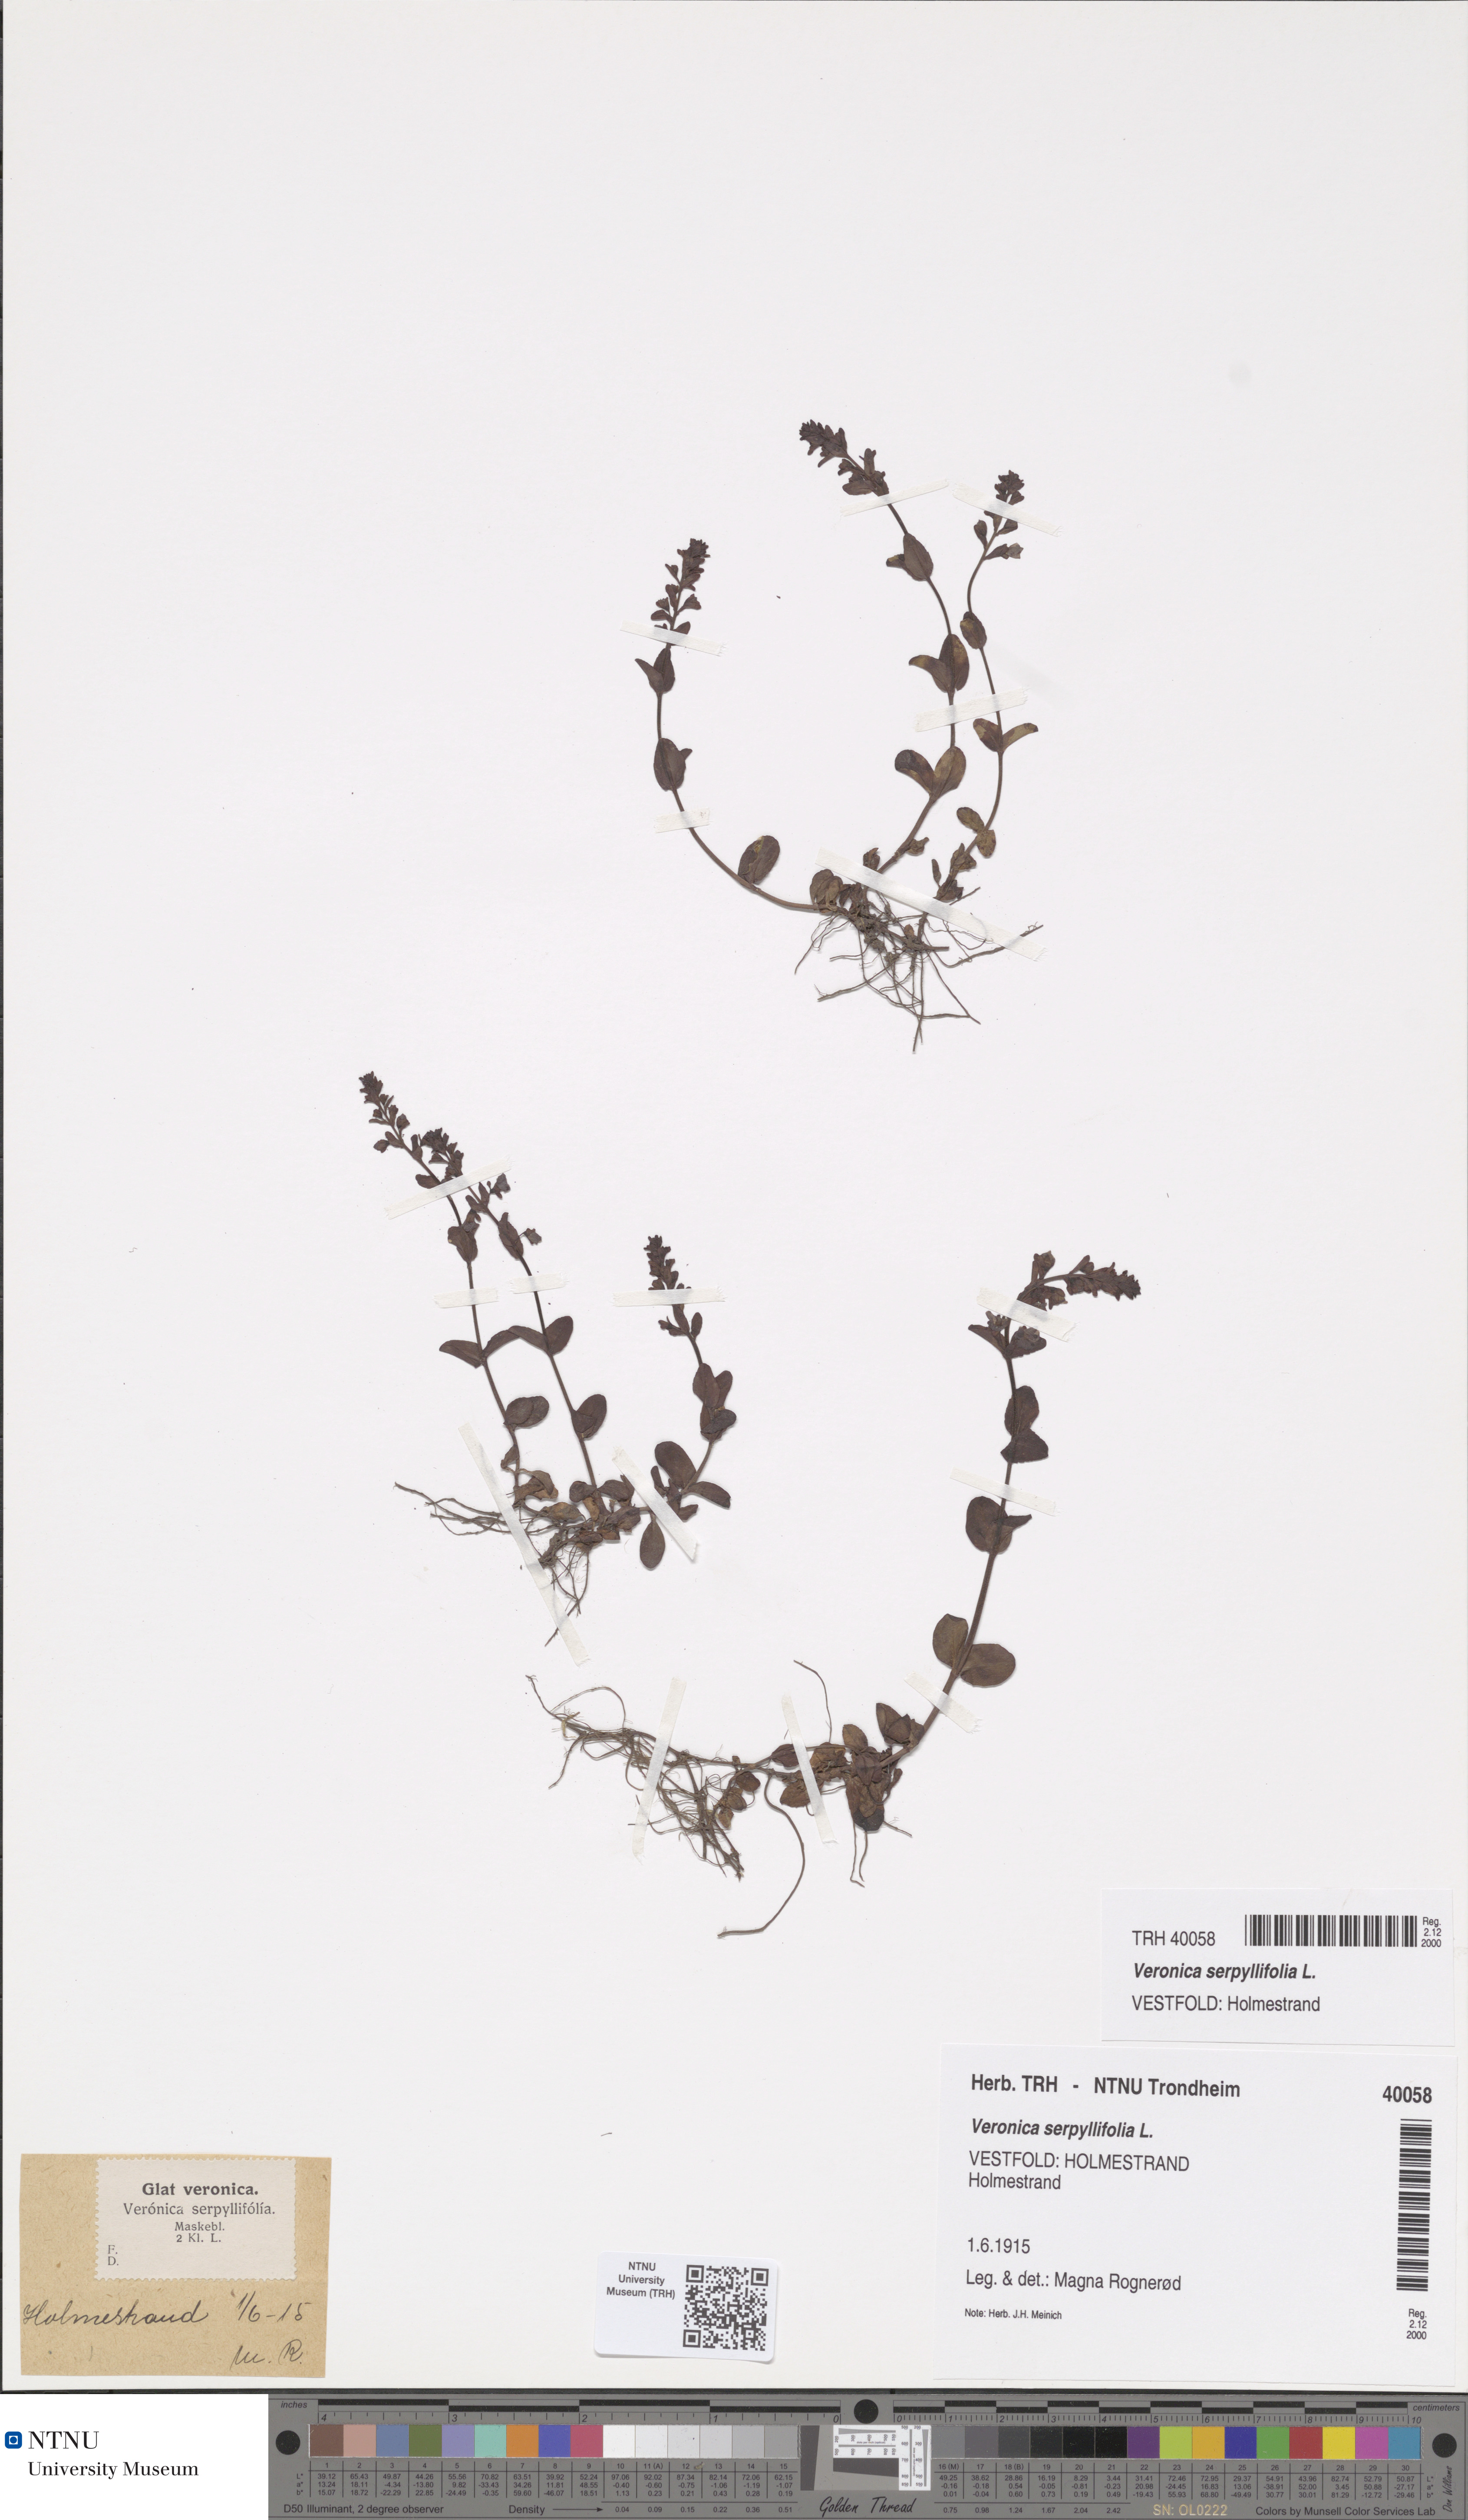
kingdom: Plantae
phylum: Tracheophyta
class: Magnoliopsida
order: Lamiales
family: Plantaginaceae
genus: Veronica
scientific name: Veronica serpyllifolia
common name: Thyme-leaved speedwell
